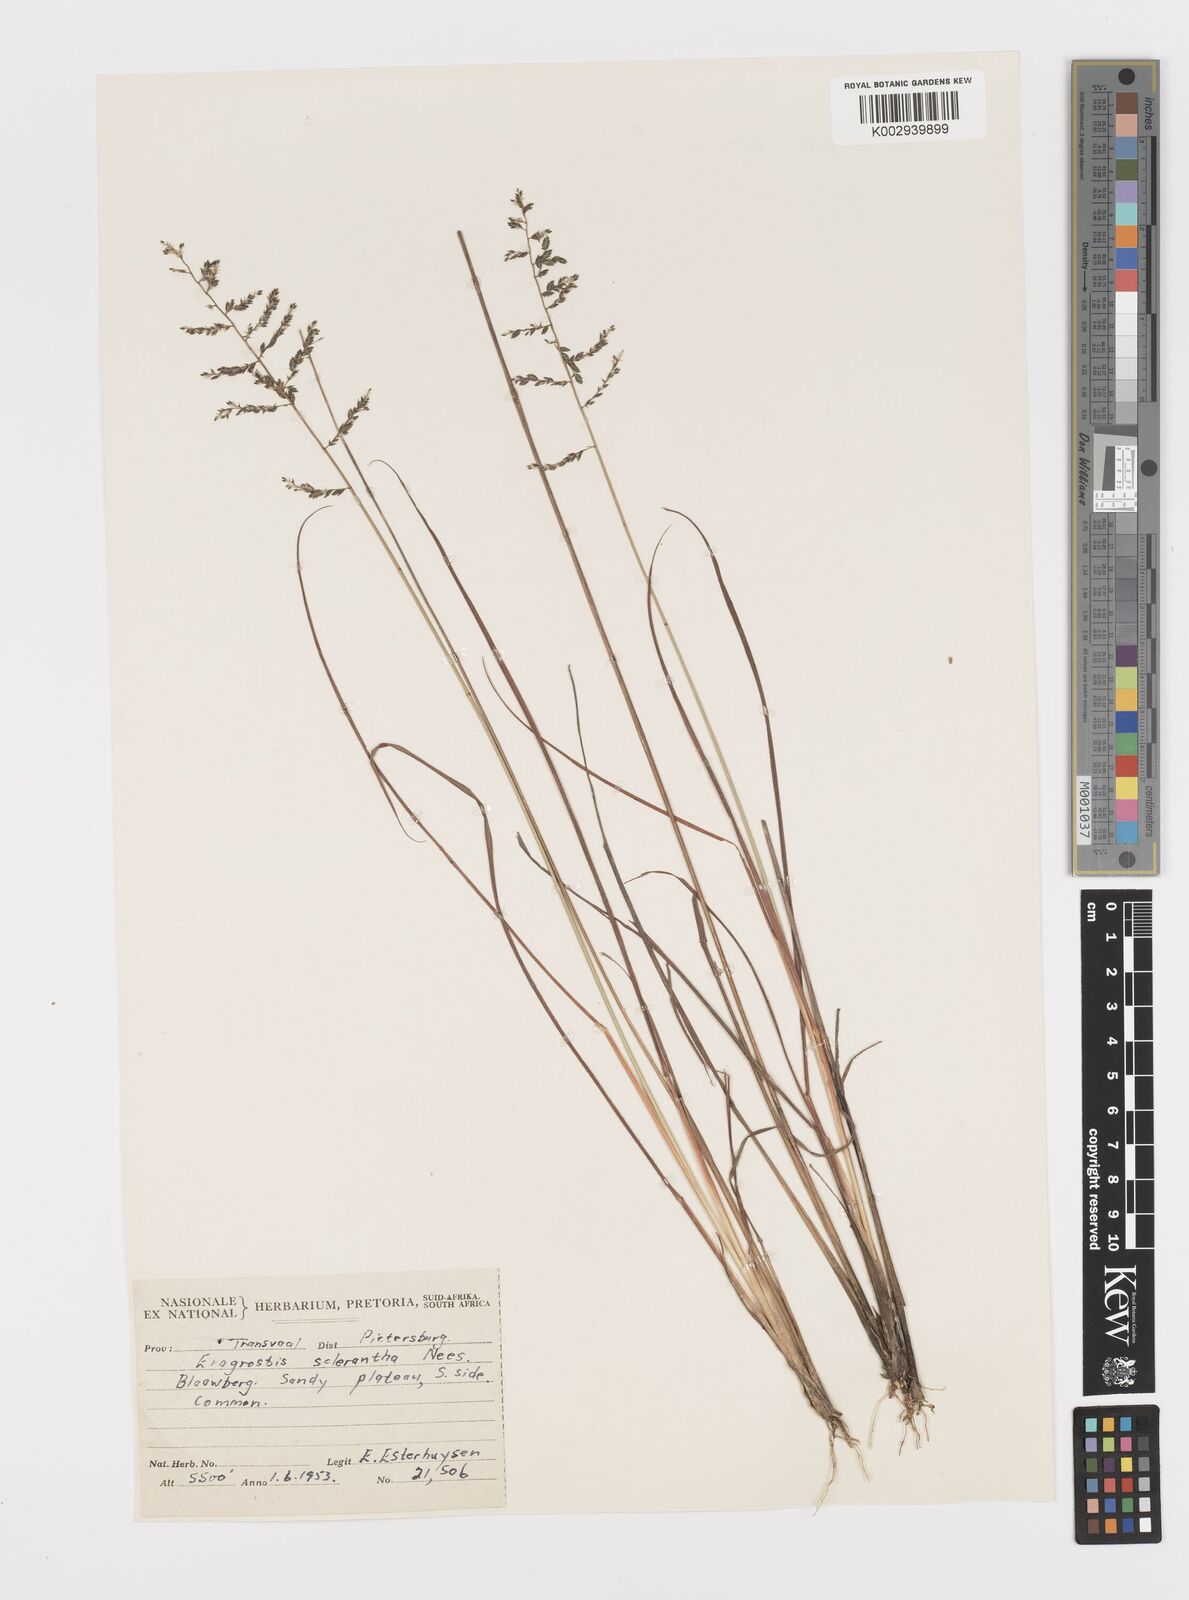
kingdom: Plantae
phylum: Tracheophyta
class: Liliopsida
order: Poales
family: Poaceae
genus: Eragrostis
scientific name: Eragrostis sclerantha
